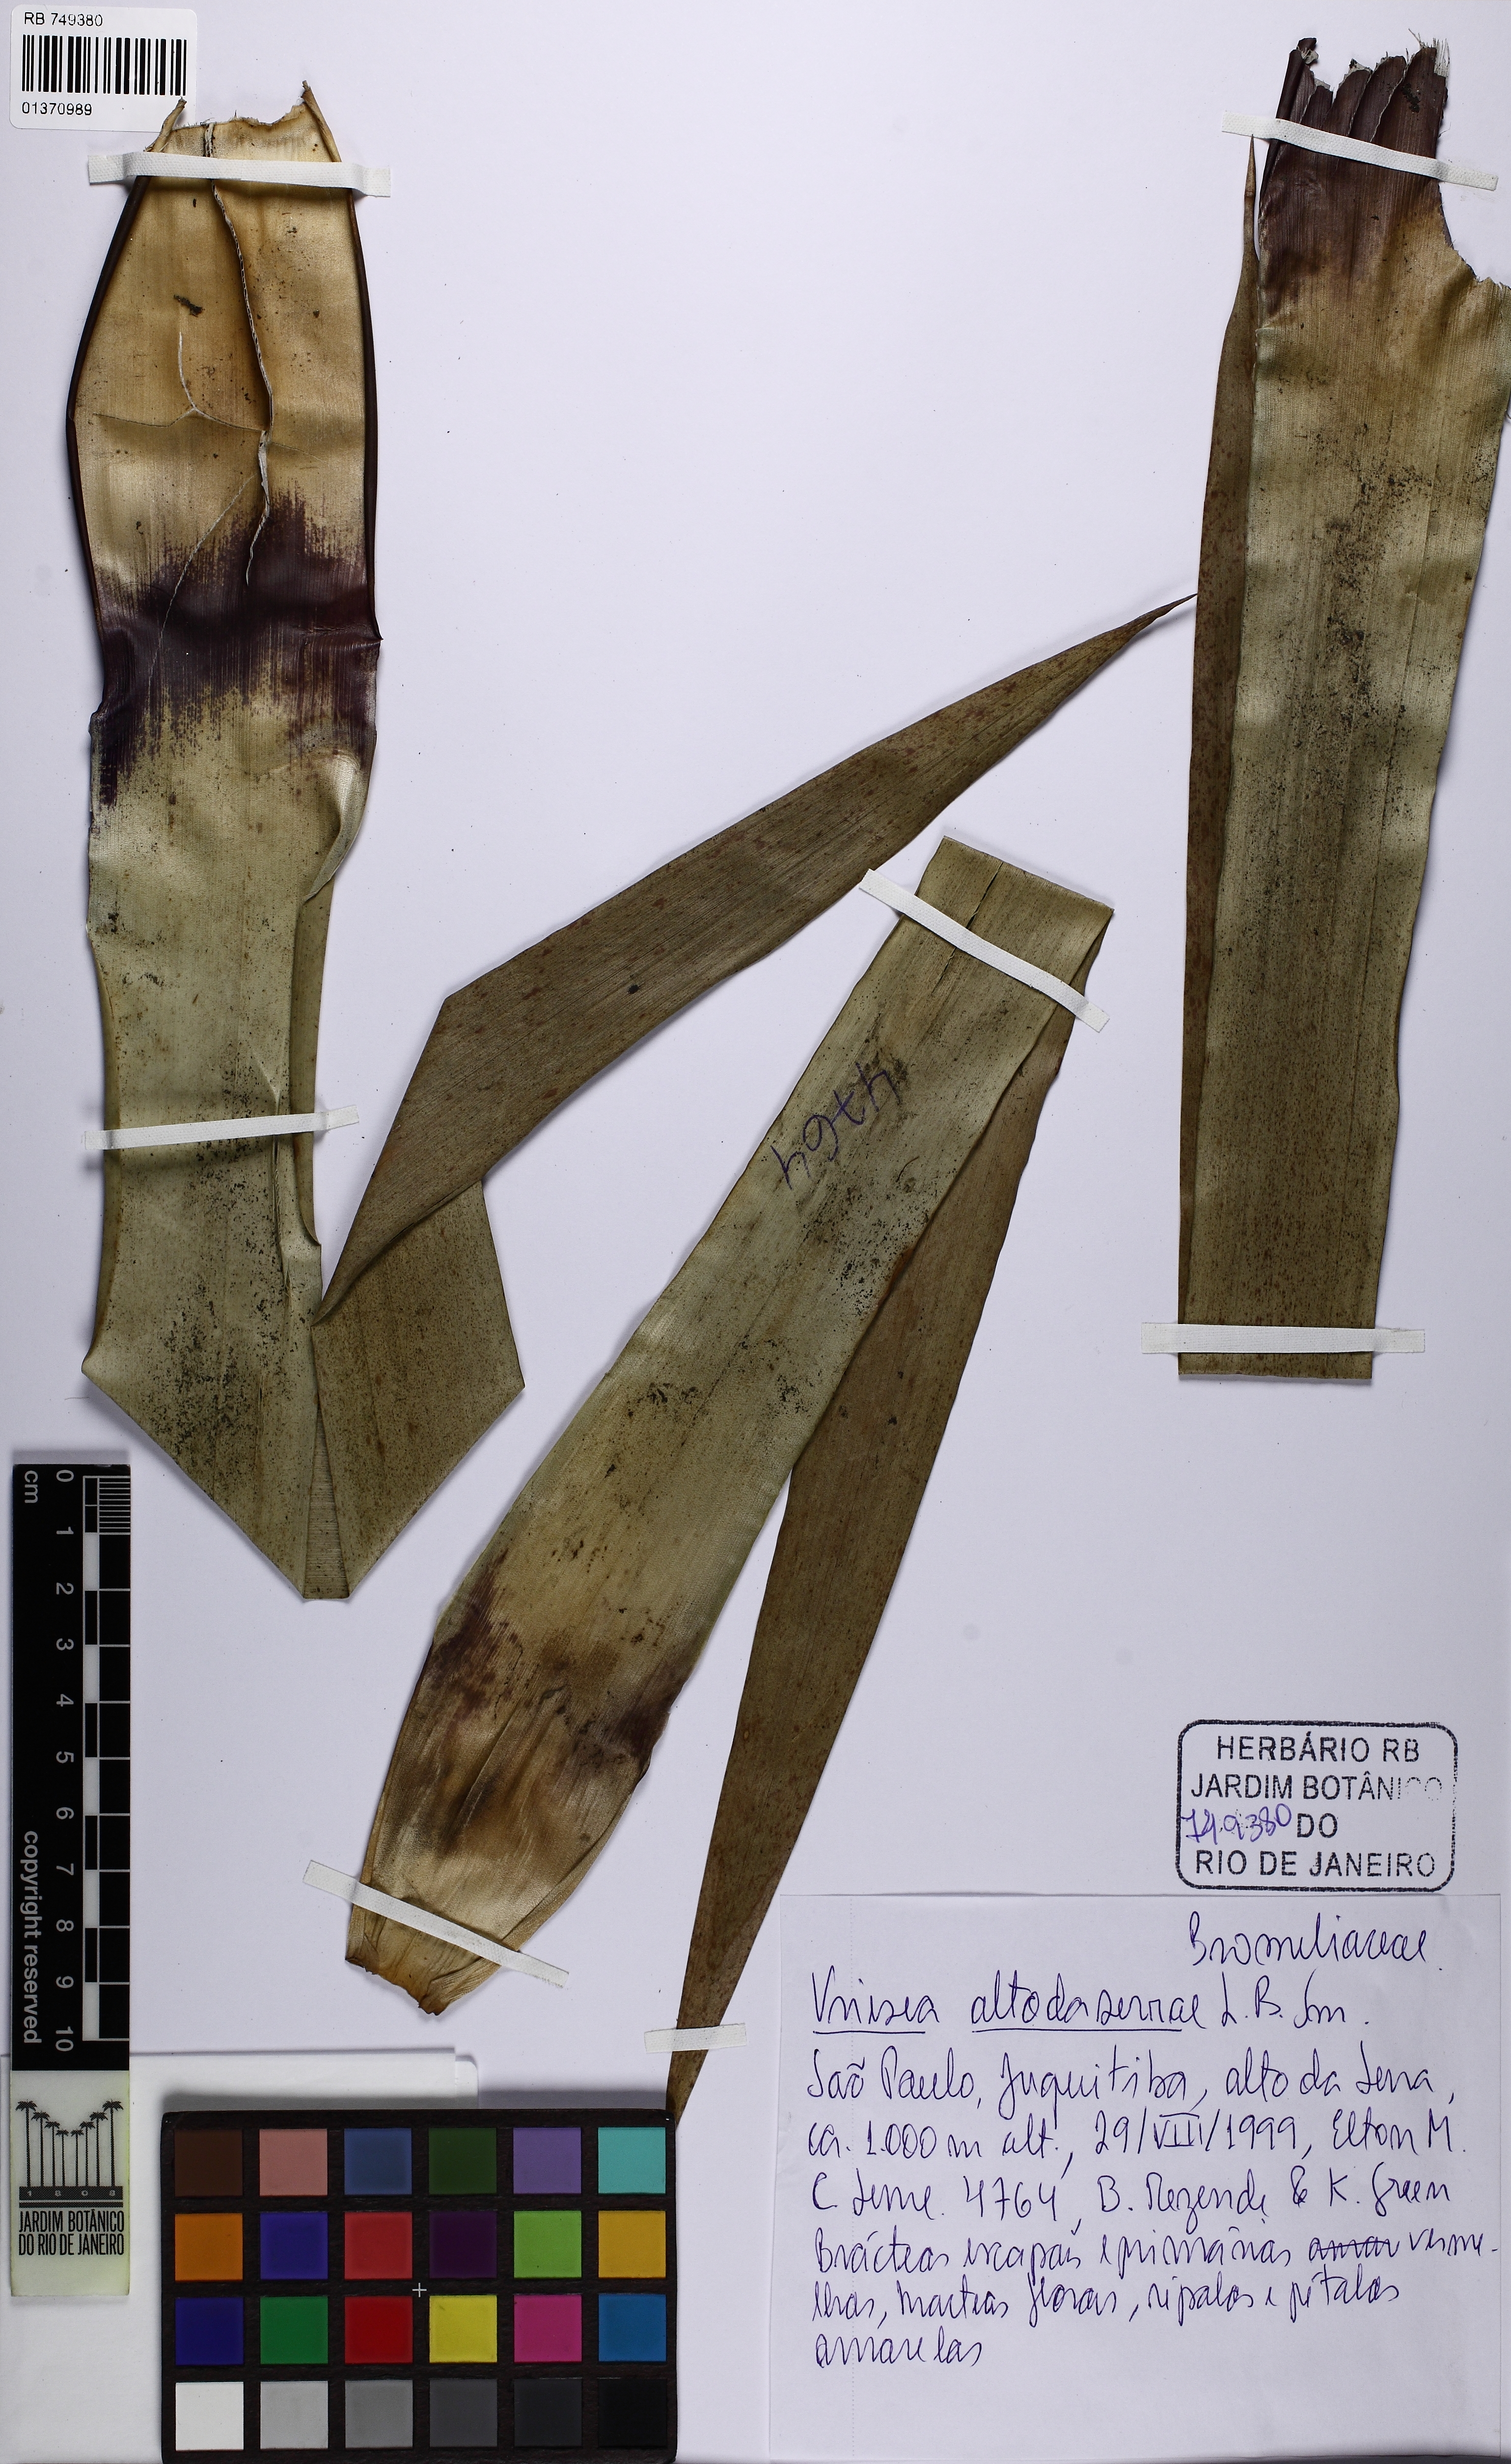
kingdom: Plantae
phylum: Tracheophyta
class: Liliopsida
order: Poales
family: Bromeliaceae
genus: Vriesea
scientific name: Vriesea altodaserrae
